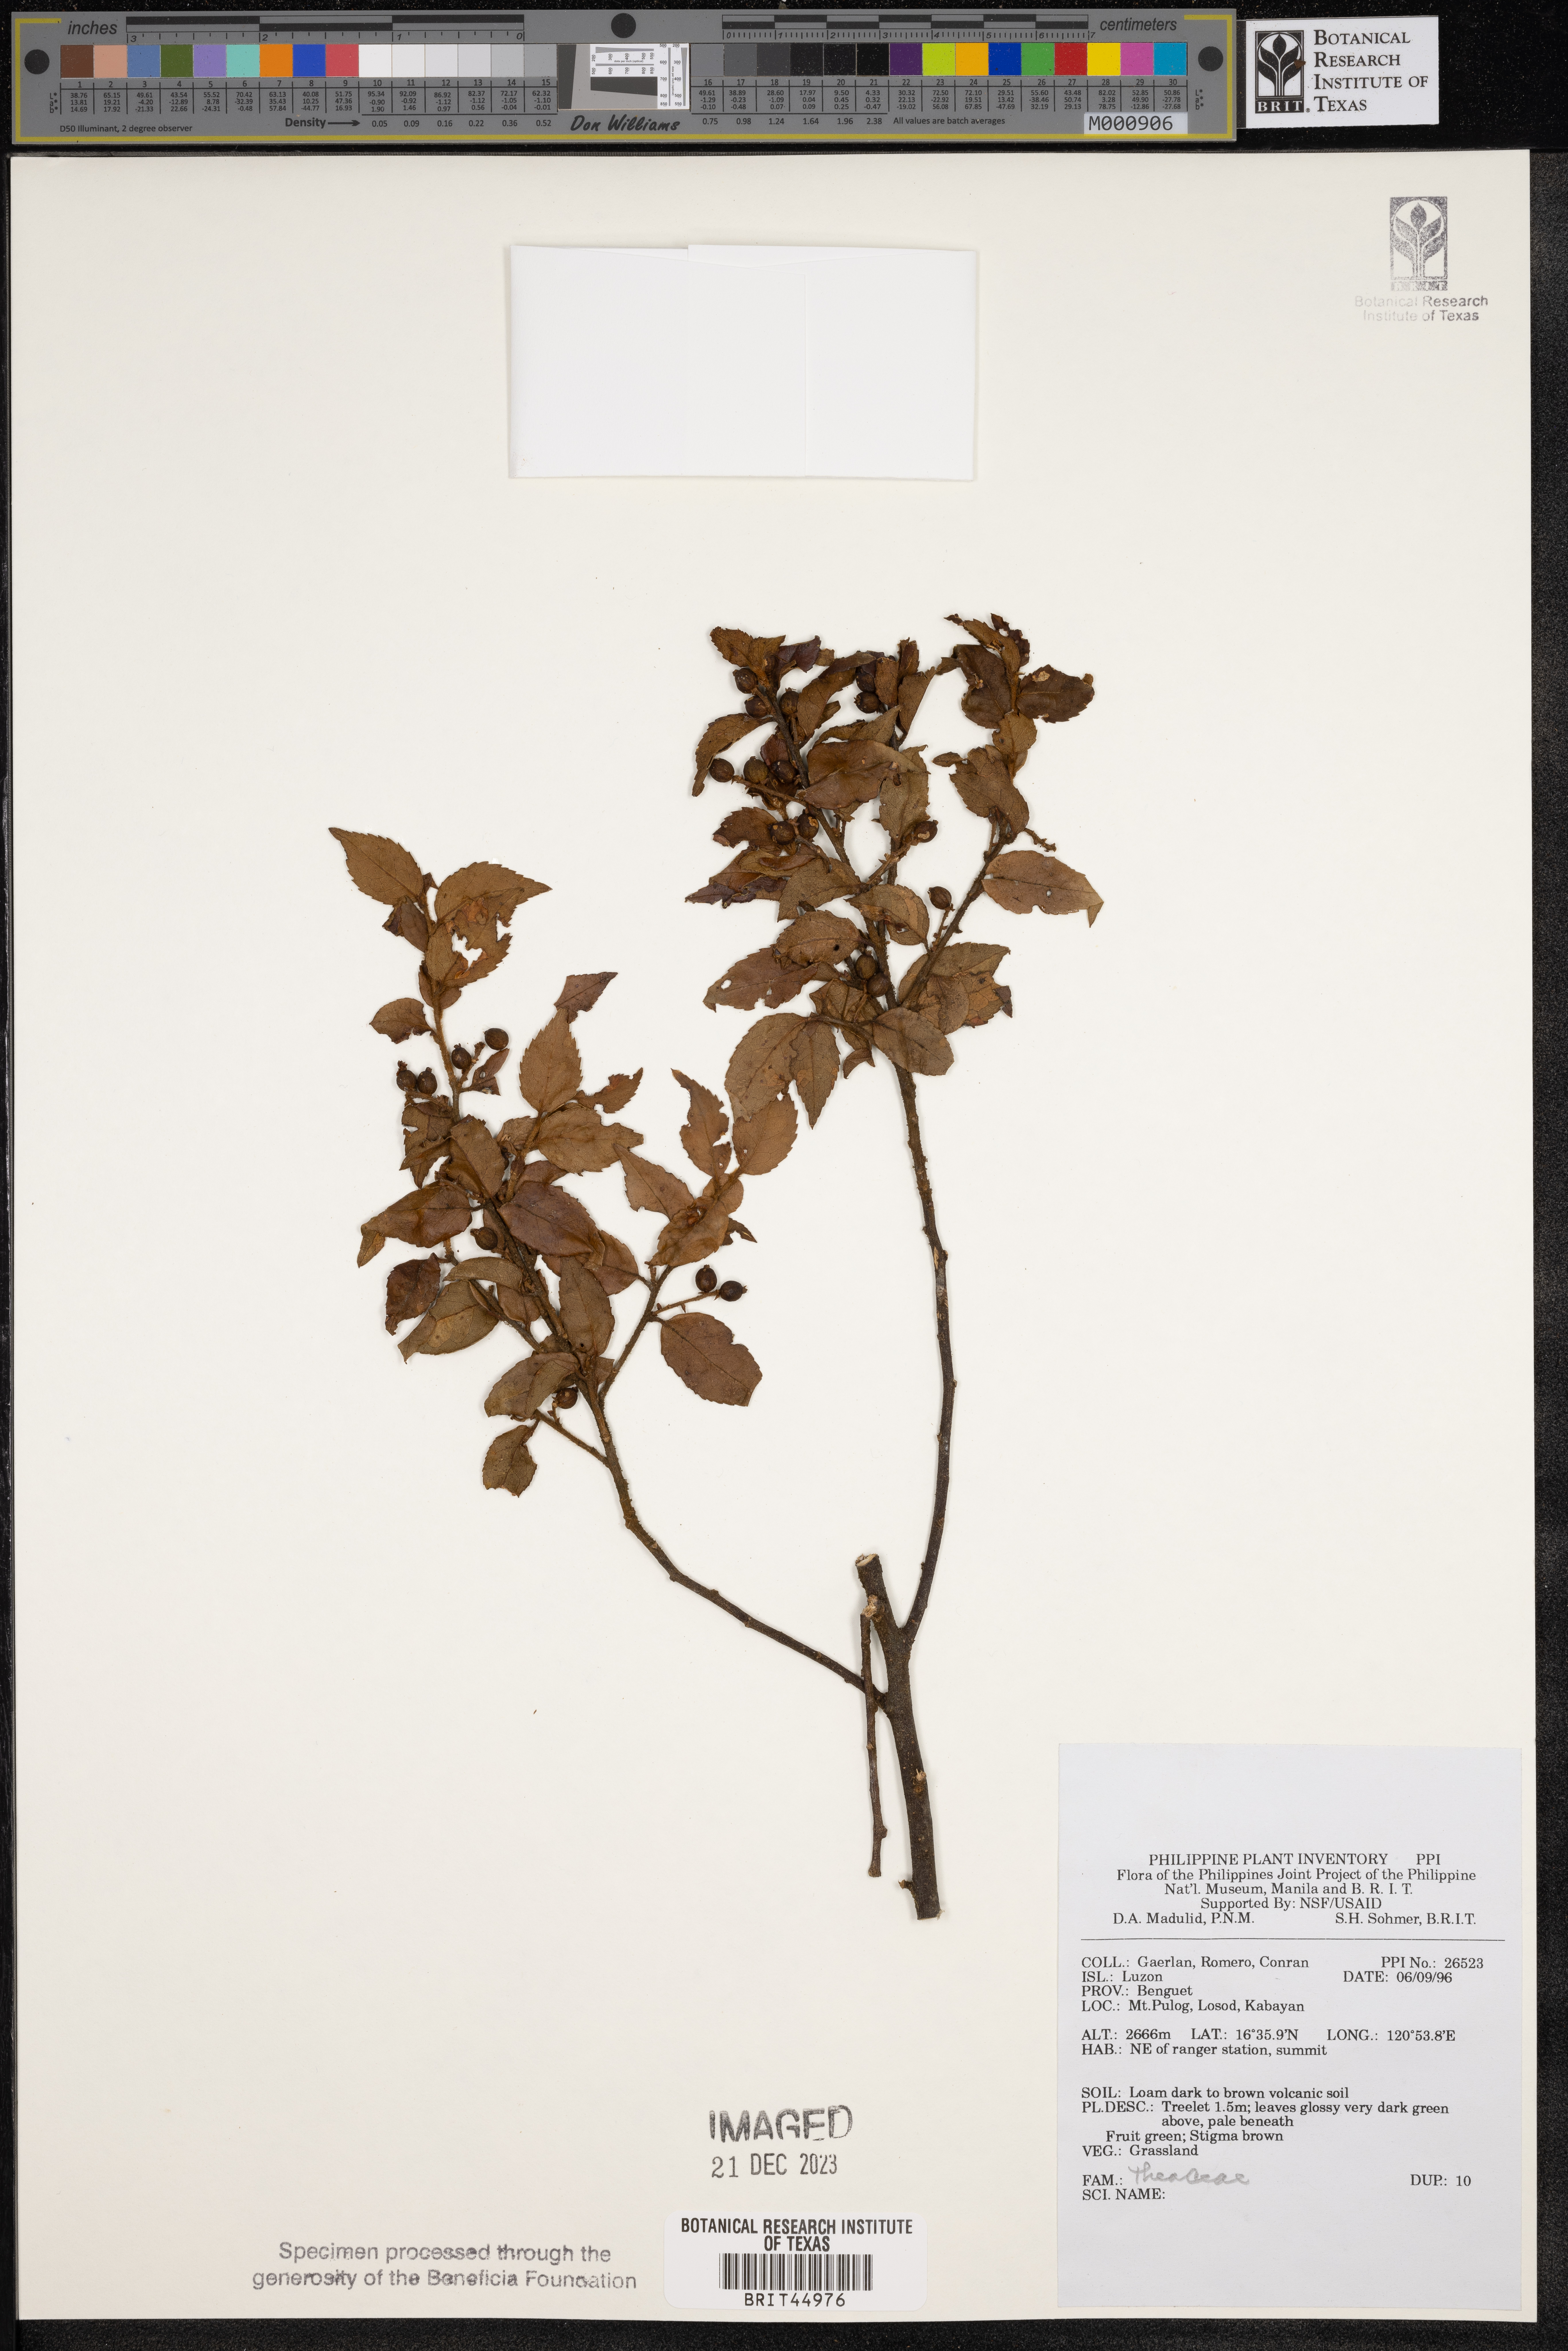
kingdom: Plantae
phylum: Tracheophyta
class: Magnoliopsida
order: Ericales
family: Theaceae
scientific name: Theaceae
